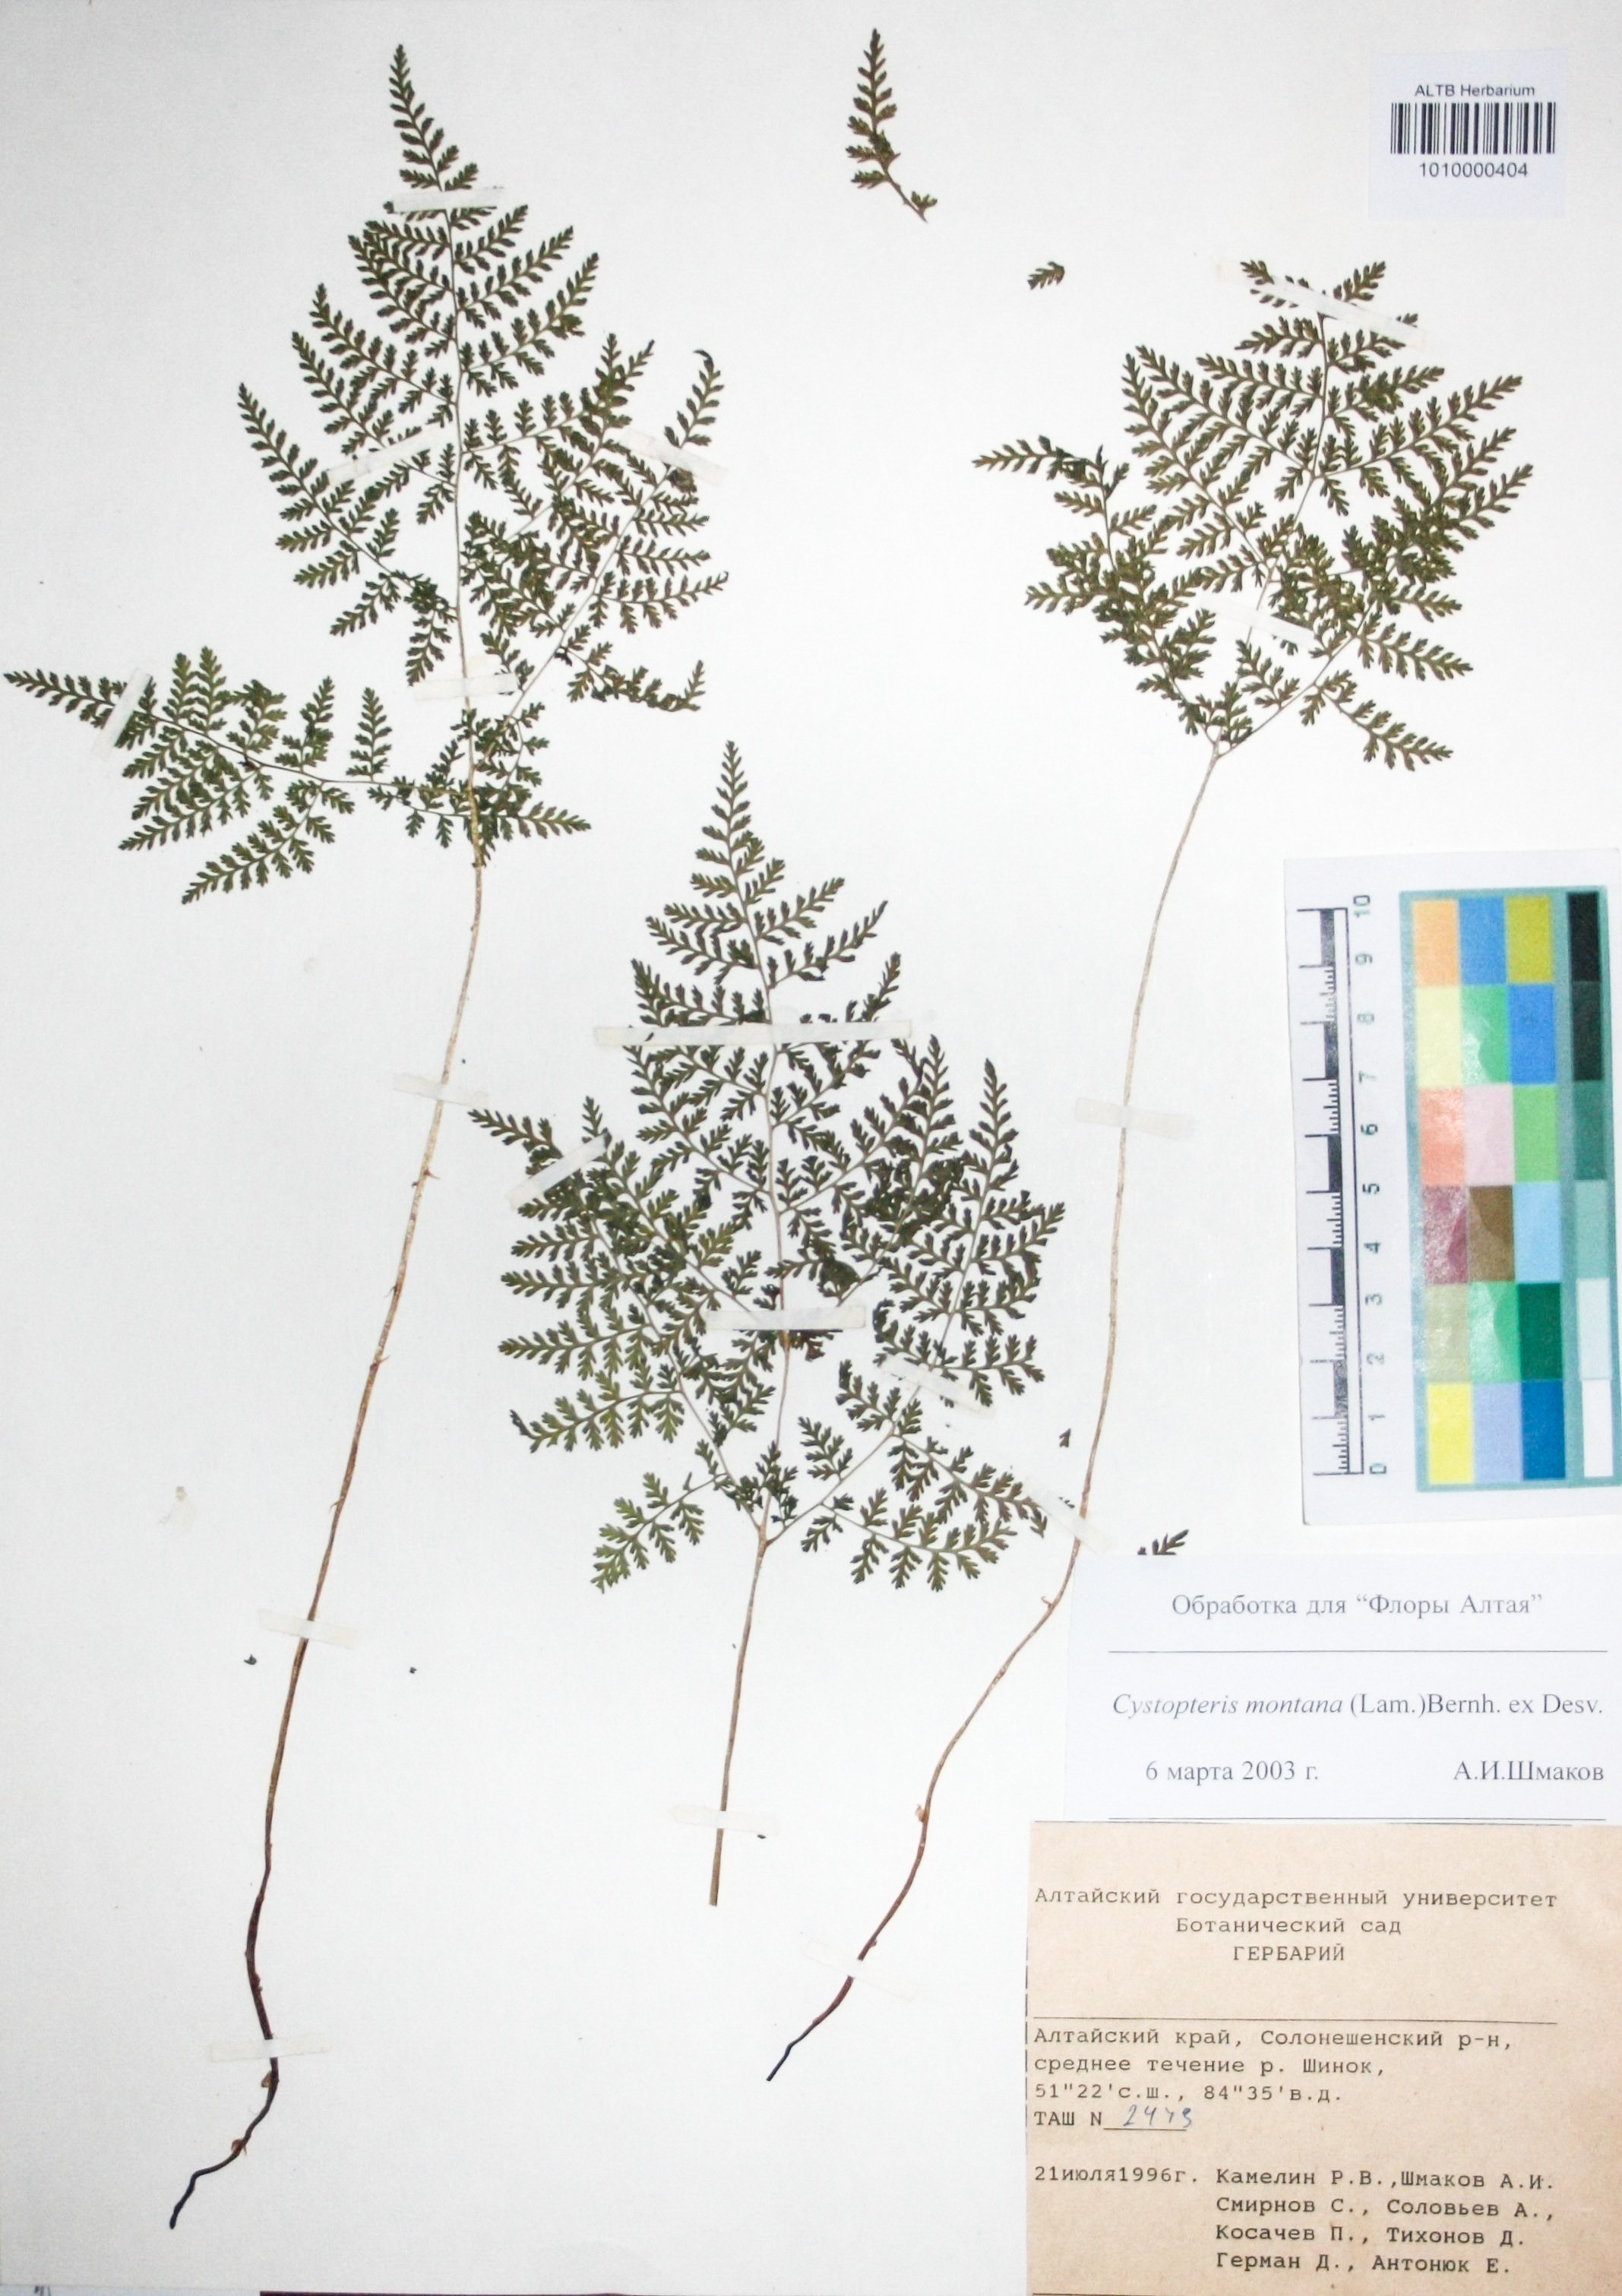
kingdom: Plantae
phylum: Tracheophyta
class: Polypodiopsida
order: Polypodiales
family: Cystopteridaceae
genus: Cystopteris
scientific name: Cystopteris montana
